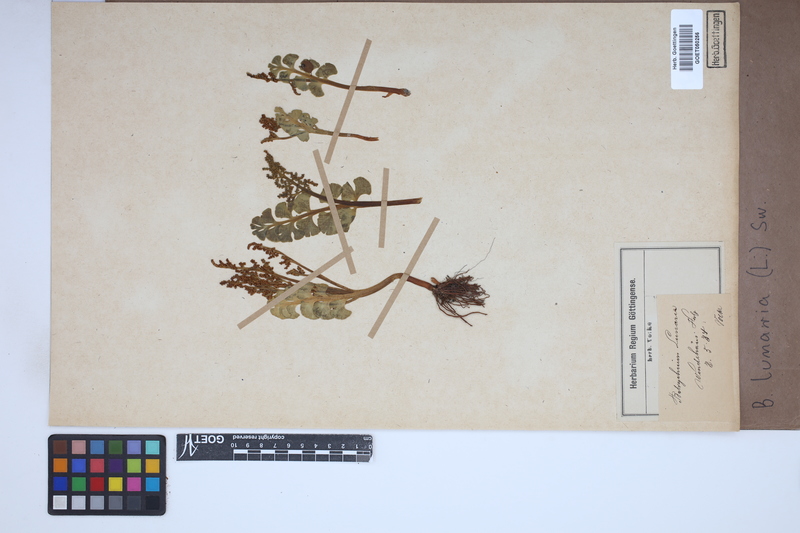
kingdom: Plantae
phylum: Tracheophyta
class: Polypodiopsida
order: Ophioglossales
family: Ophioglossaceae
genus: Botrychium
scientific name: Botrychium lunaria
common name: Moonwort
